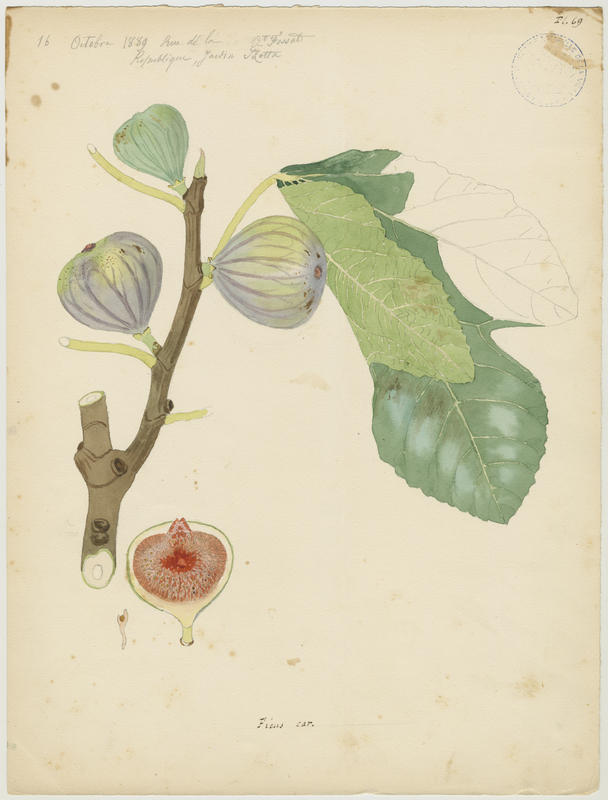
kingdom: Plantae
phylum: Tracheophyta
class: Magnoliopsida
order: Rosales
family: Moraceae
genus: Ficus
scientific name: Ficus carica
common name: Fig
